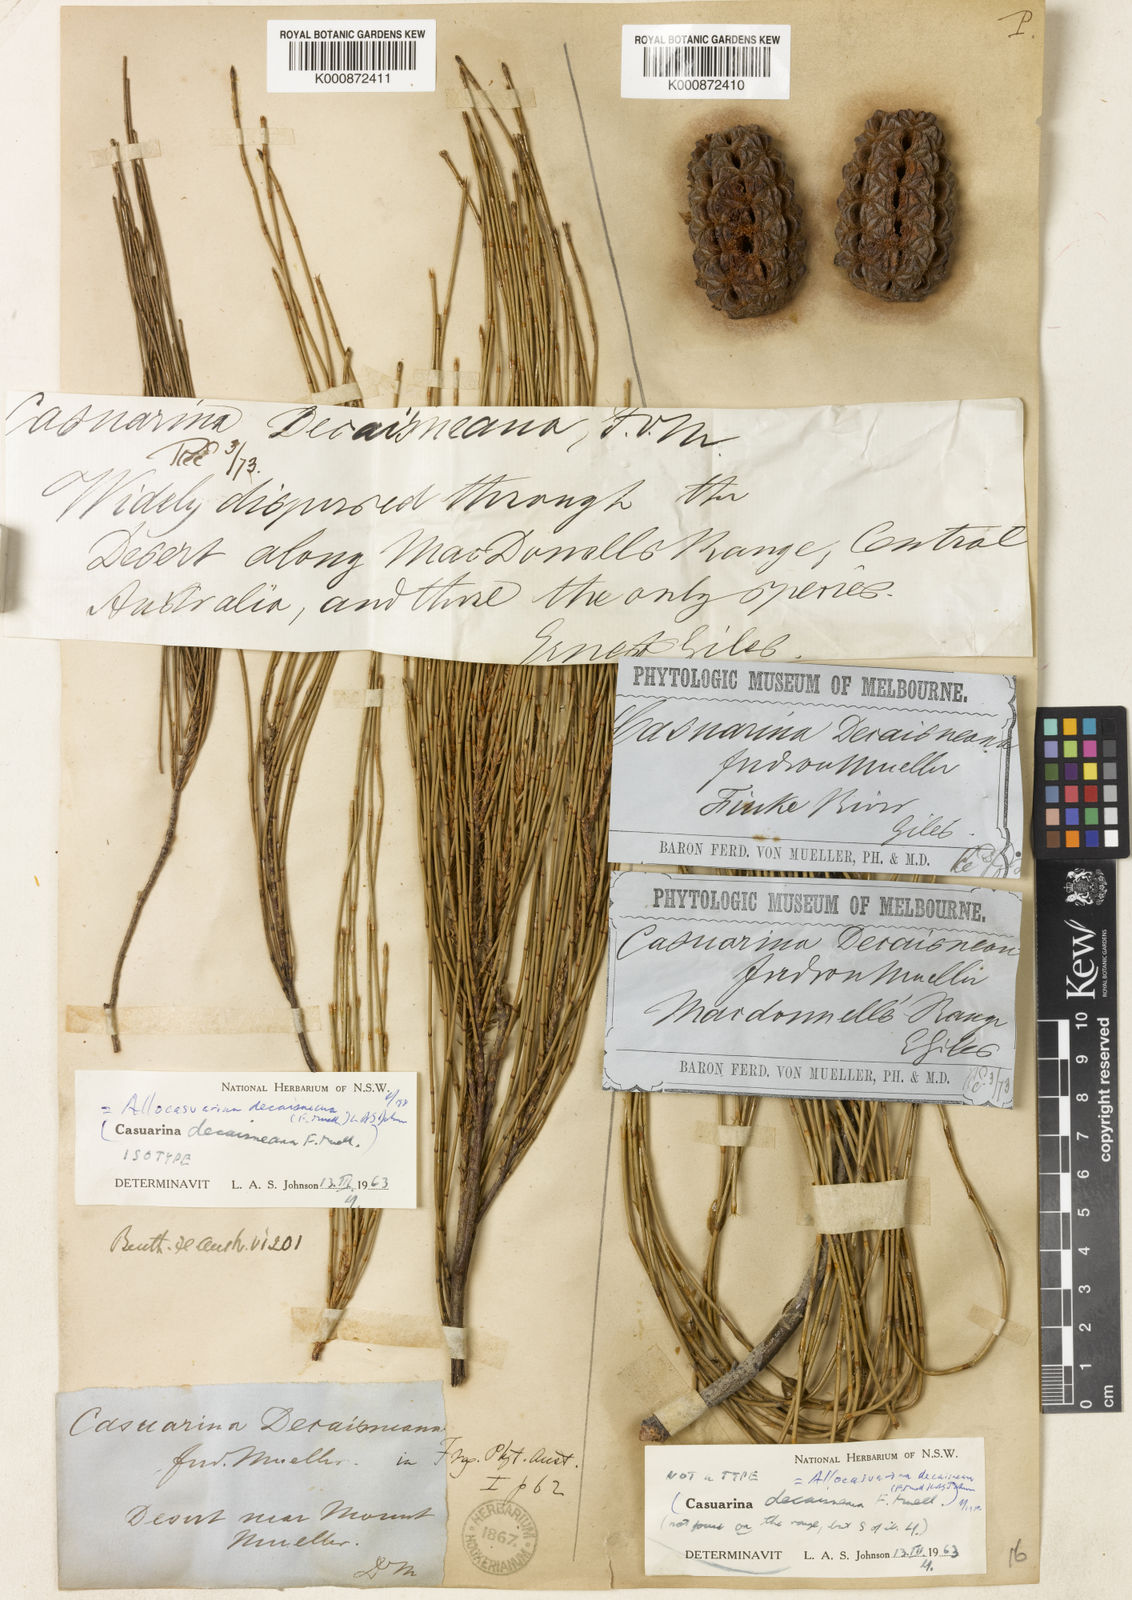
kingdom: Plantae
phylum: Tracheophyta
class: Magnoliopsida
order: Fagales
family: Casuarinaceae
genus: Allocasuarina
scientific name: Allocasuarina decaisneana
